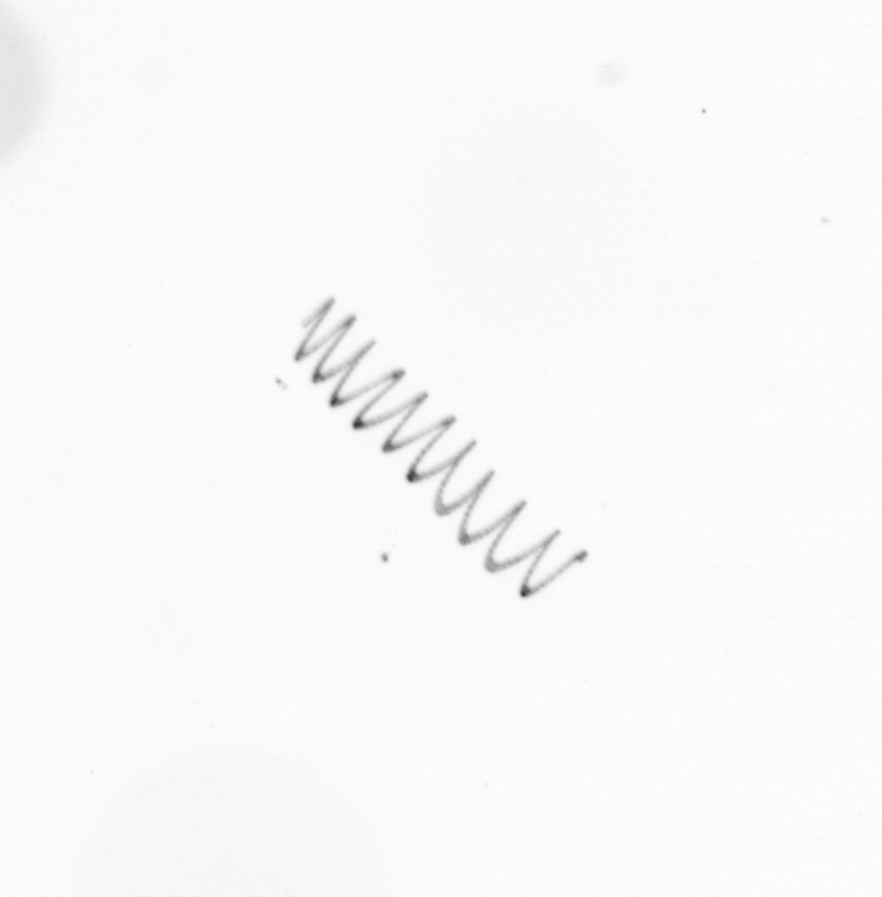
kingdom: Chromista
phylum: Ochrophyta
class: Bacillariophyceae
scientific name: Bacillariophyceae
